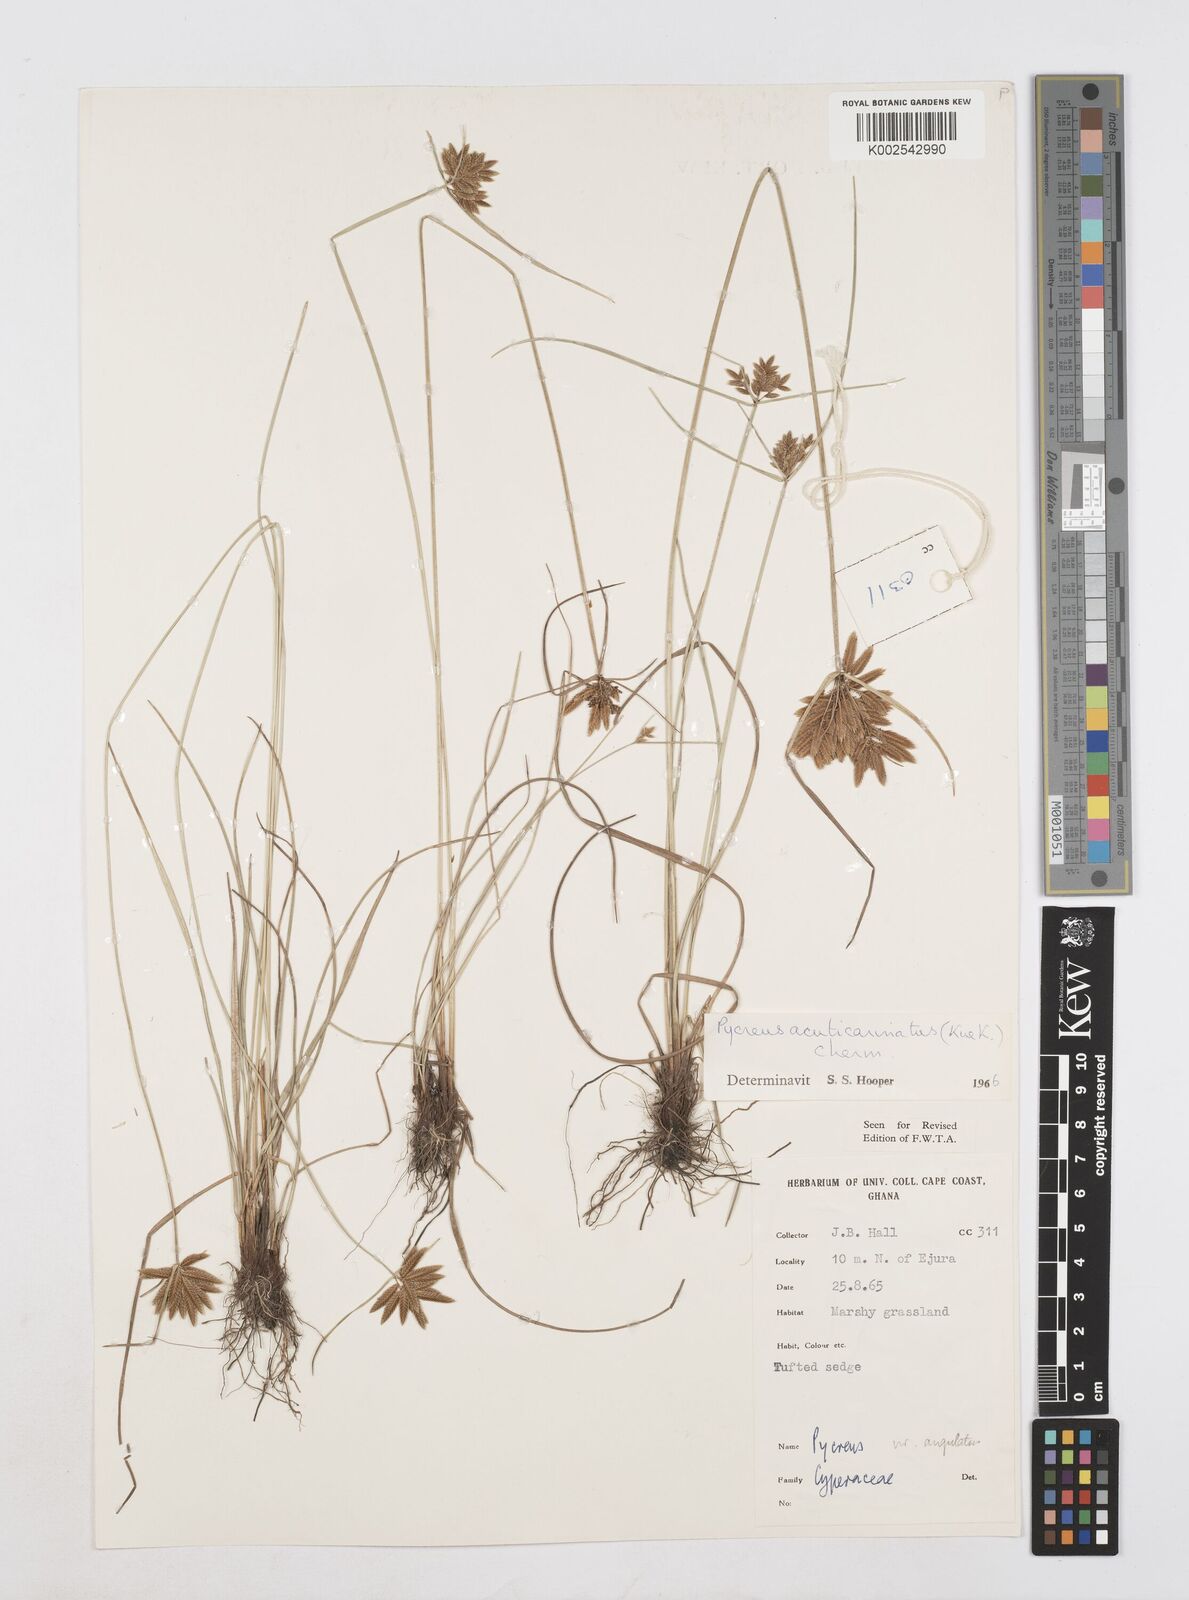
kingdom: Plantae
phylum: Tracheophyta
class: Liliopsida
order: Poales
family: Cyperaceae
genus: Cyperus
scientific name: Cyperus acuticarinatus
